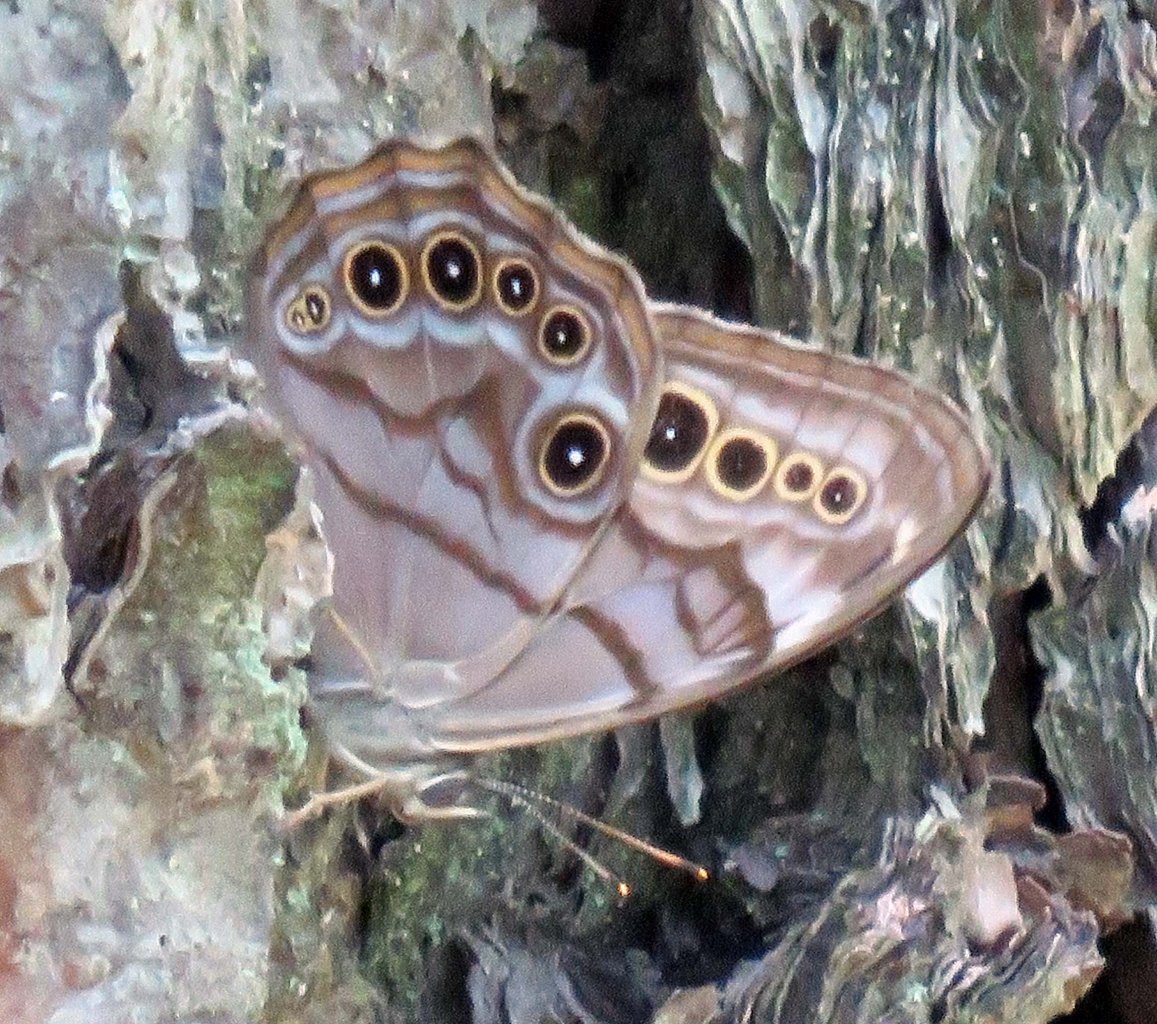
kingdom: Animalia
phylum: Arthropoda
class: Insecta
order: Lepidoptera
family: Nymphalidae
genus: Lethe
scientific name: Lethe anthedon
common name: Northern Pearly-Eye
